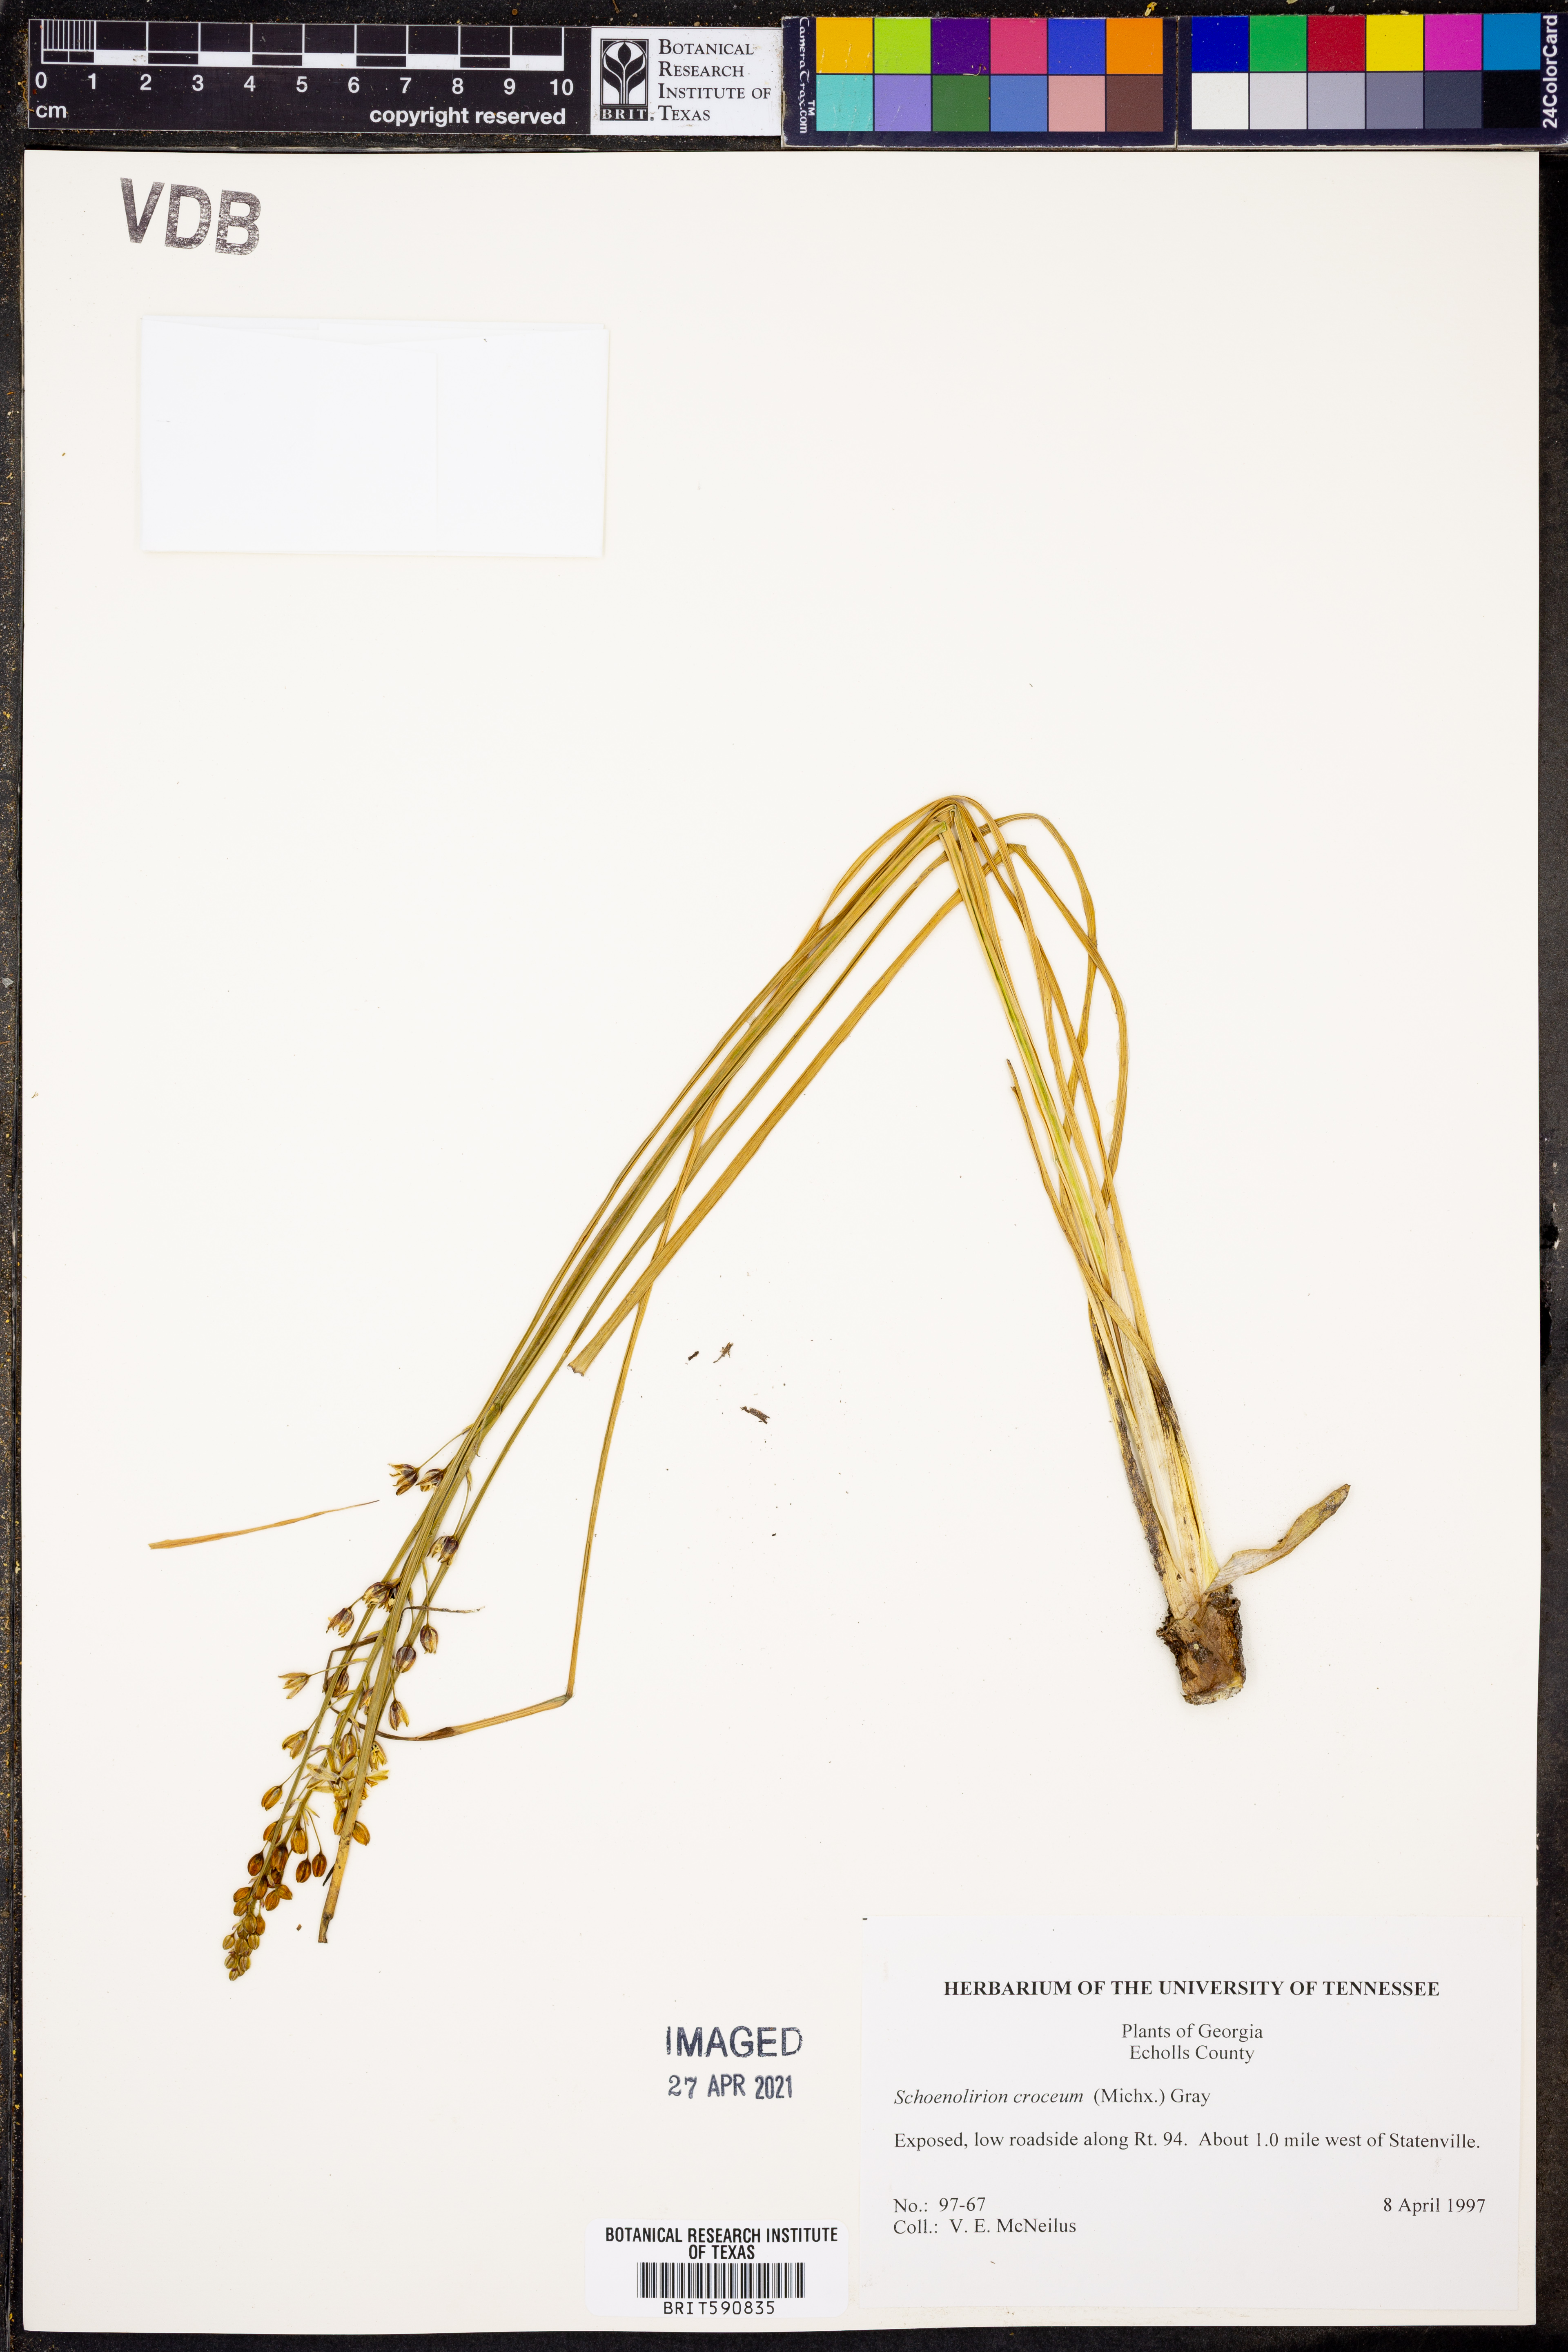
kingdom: Plantae
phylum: Tracheophyta
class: Liliopsida
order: Asparagales
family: Asparagaceae
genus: Schoenolirion
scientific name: Schoenolirion croceum
